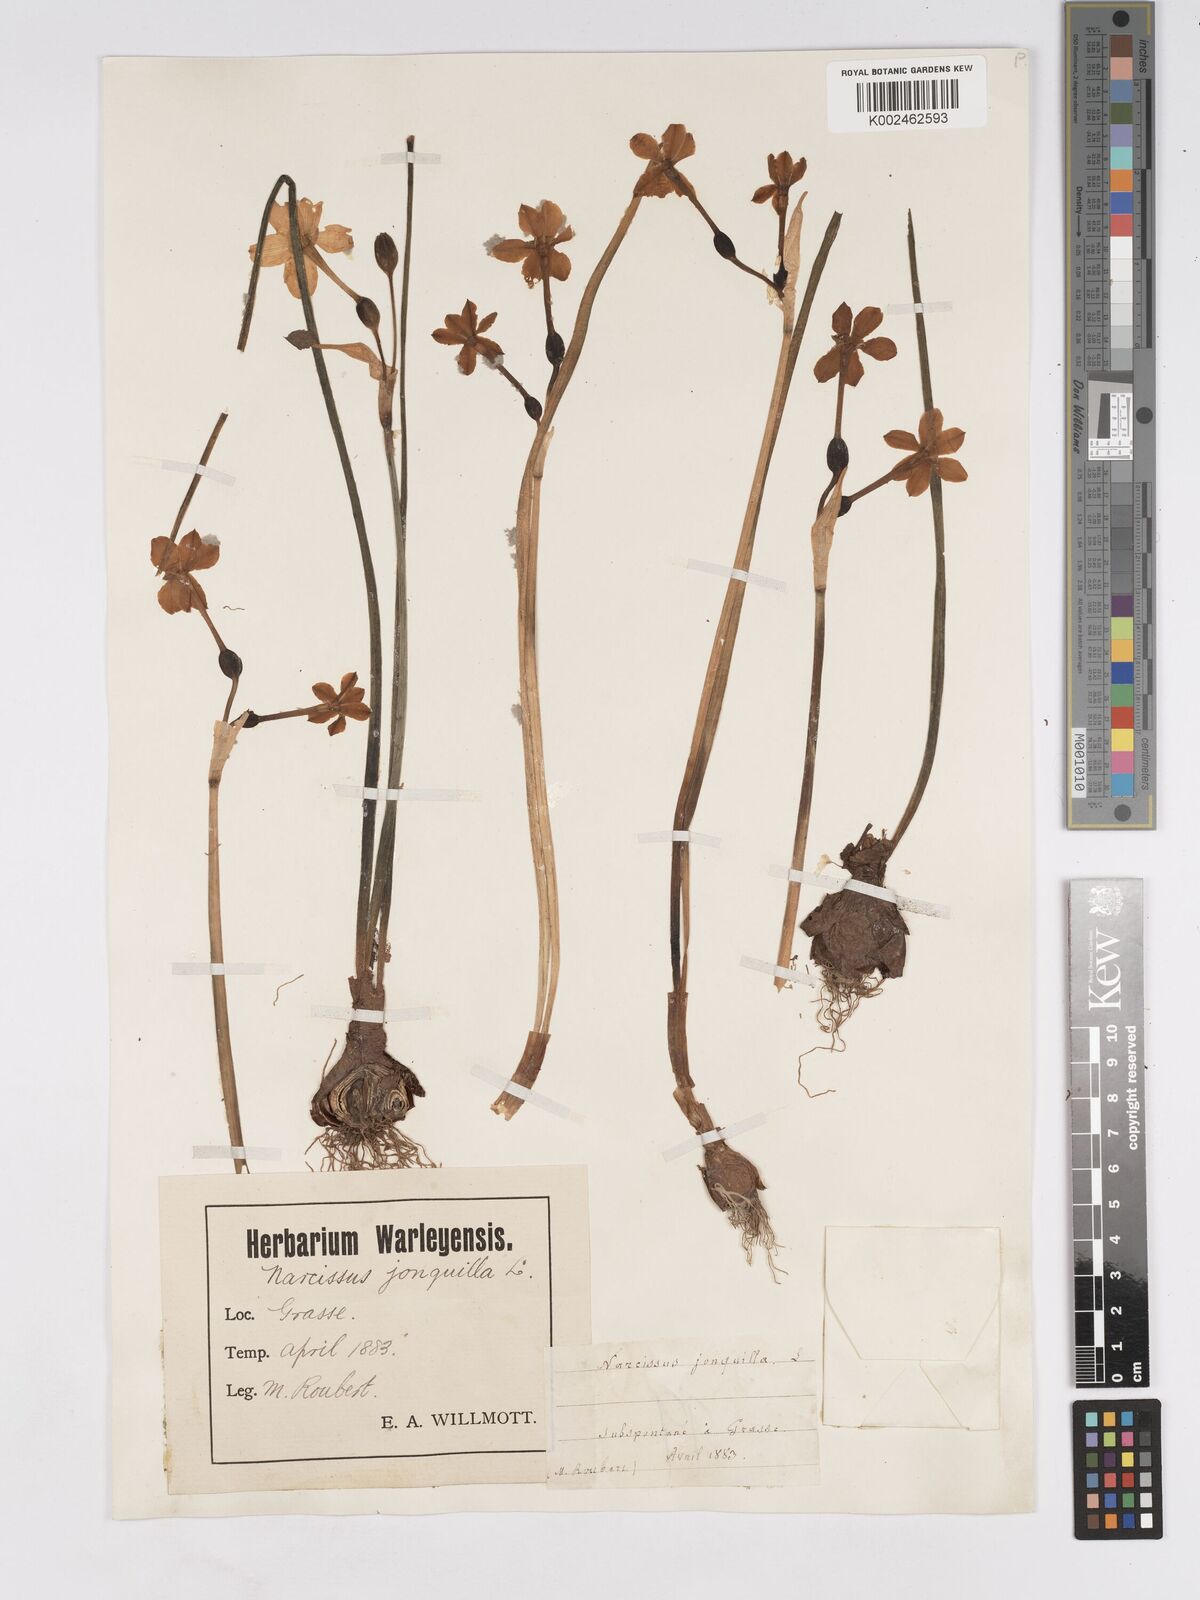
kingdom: Plantae
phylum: Tracheophyta
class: Liliopsida
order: Asparagales
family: Amaryllidaceae
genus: Narcissus
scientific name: Narcissus jonquilla
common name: Jonquil
